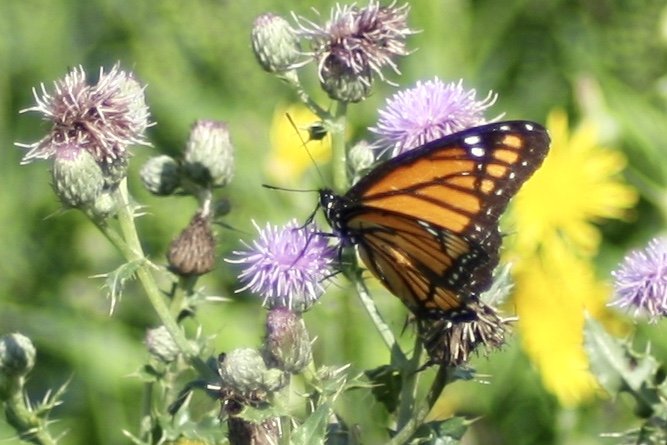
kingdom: Animalia
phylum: Arthropoda
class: Insecta
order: Lepidoptera
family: Nymphalidae
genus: Limenitis
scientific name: Limenitis archippus
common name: Viceroy
